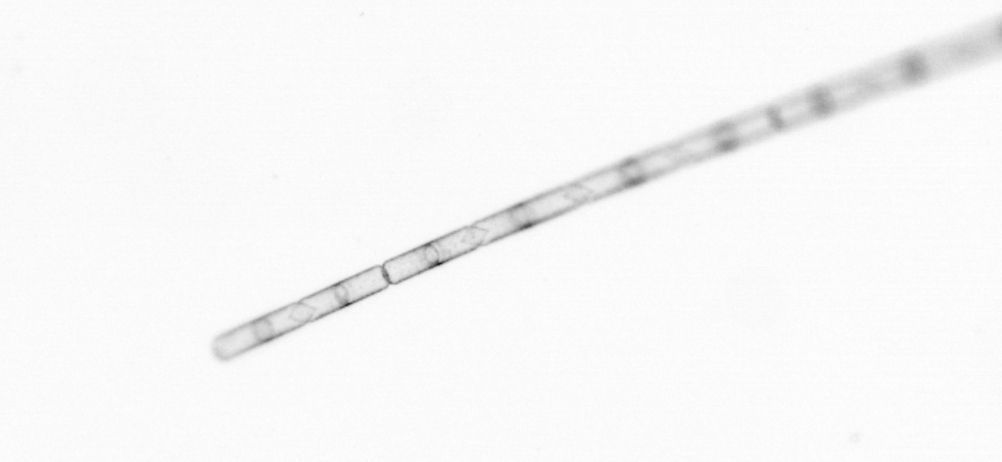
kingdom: Chromista
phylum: Ochrophyta
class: Bacillariophyceae
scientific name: Bacillariophyceae
